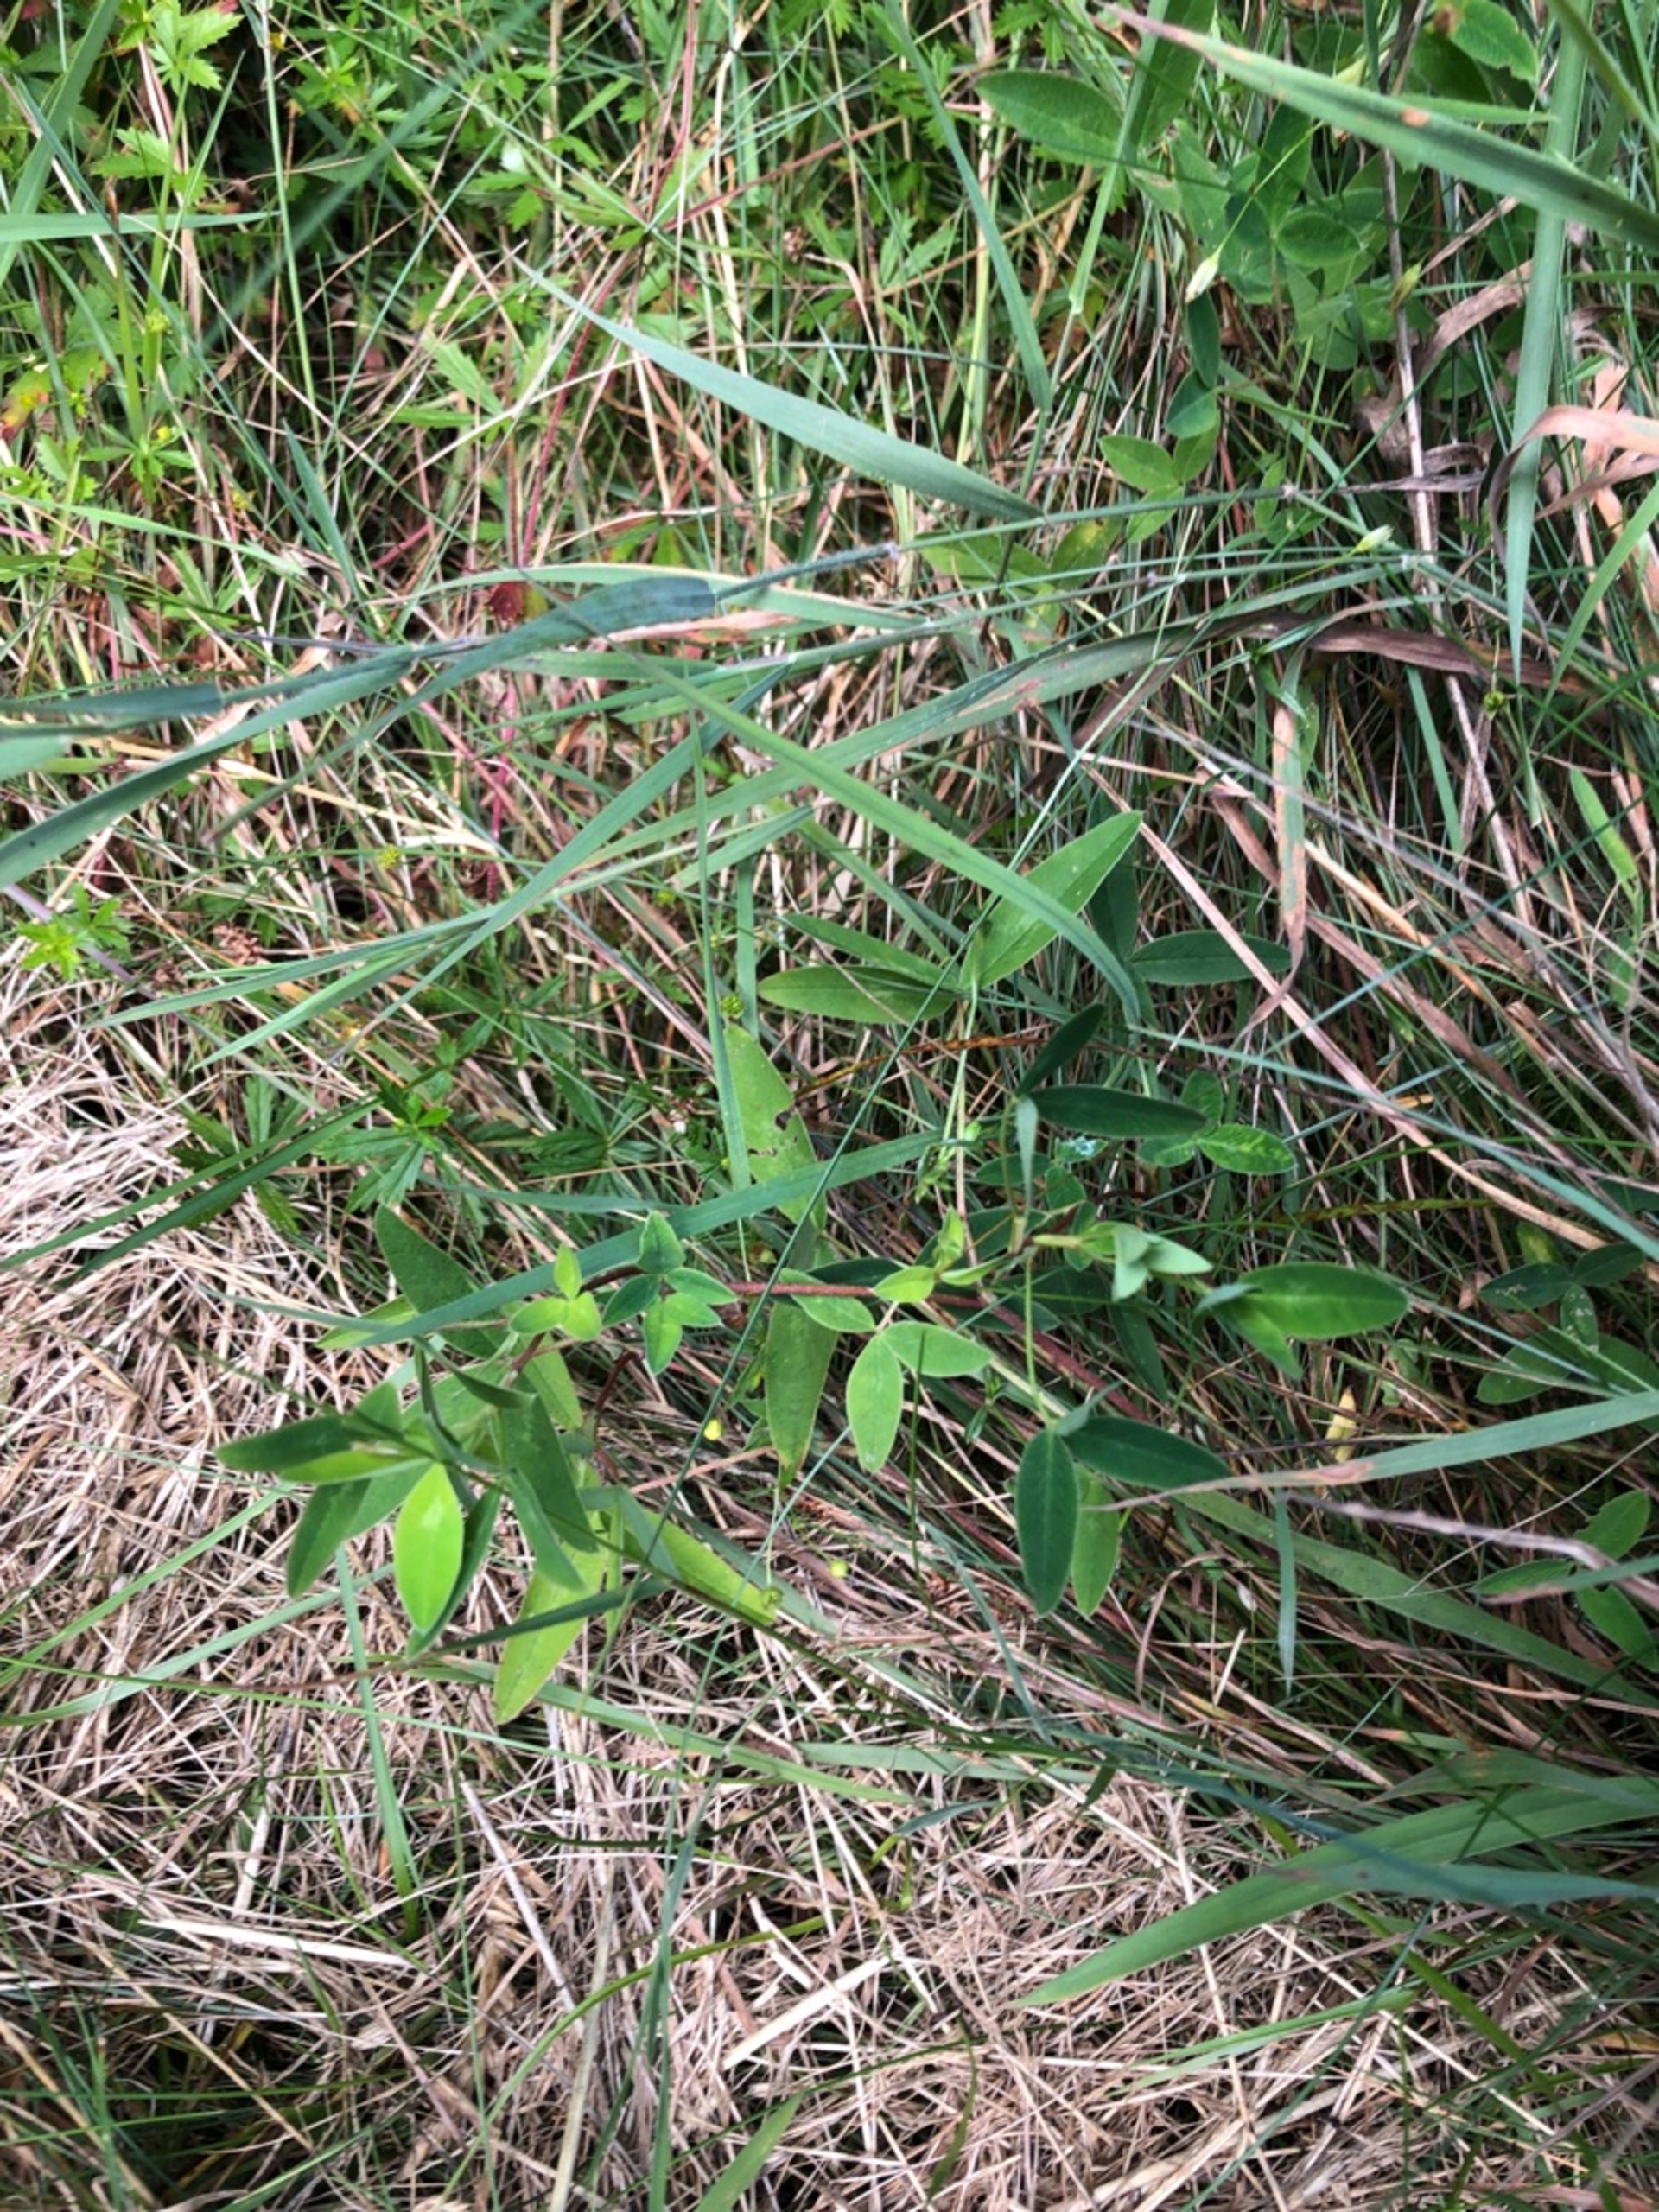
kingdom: Plantae
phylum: Tracheophyta
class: Magnoliopsida
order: Fabales
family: Fabaceae
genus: Trifolium
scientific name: Trifolium medium
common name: Bugtet kløver
